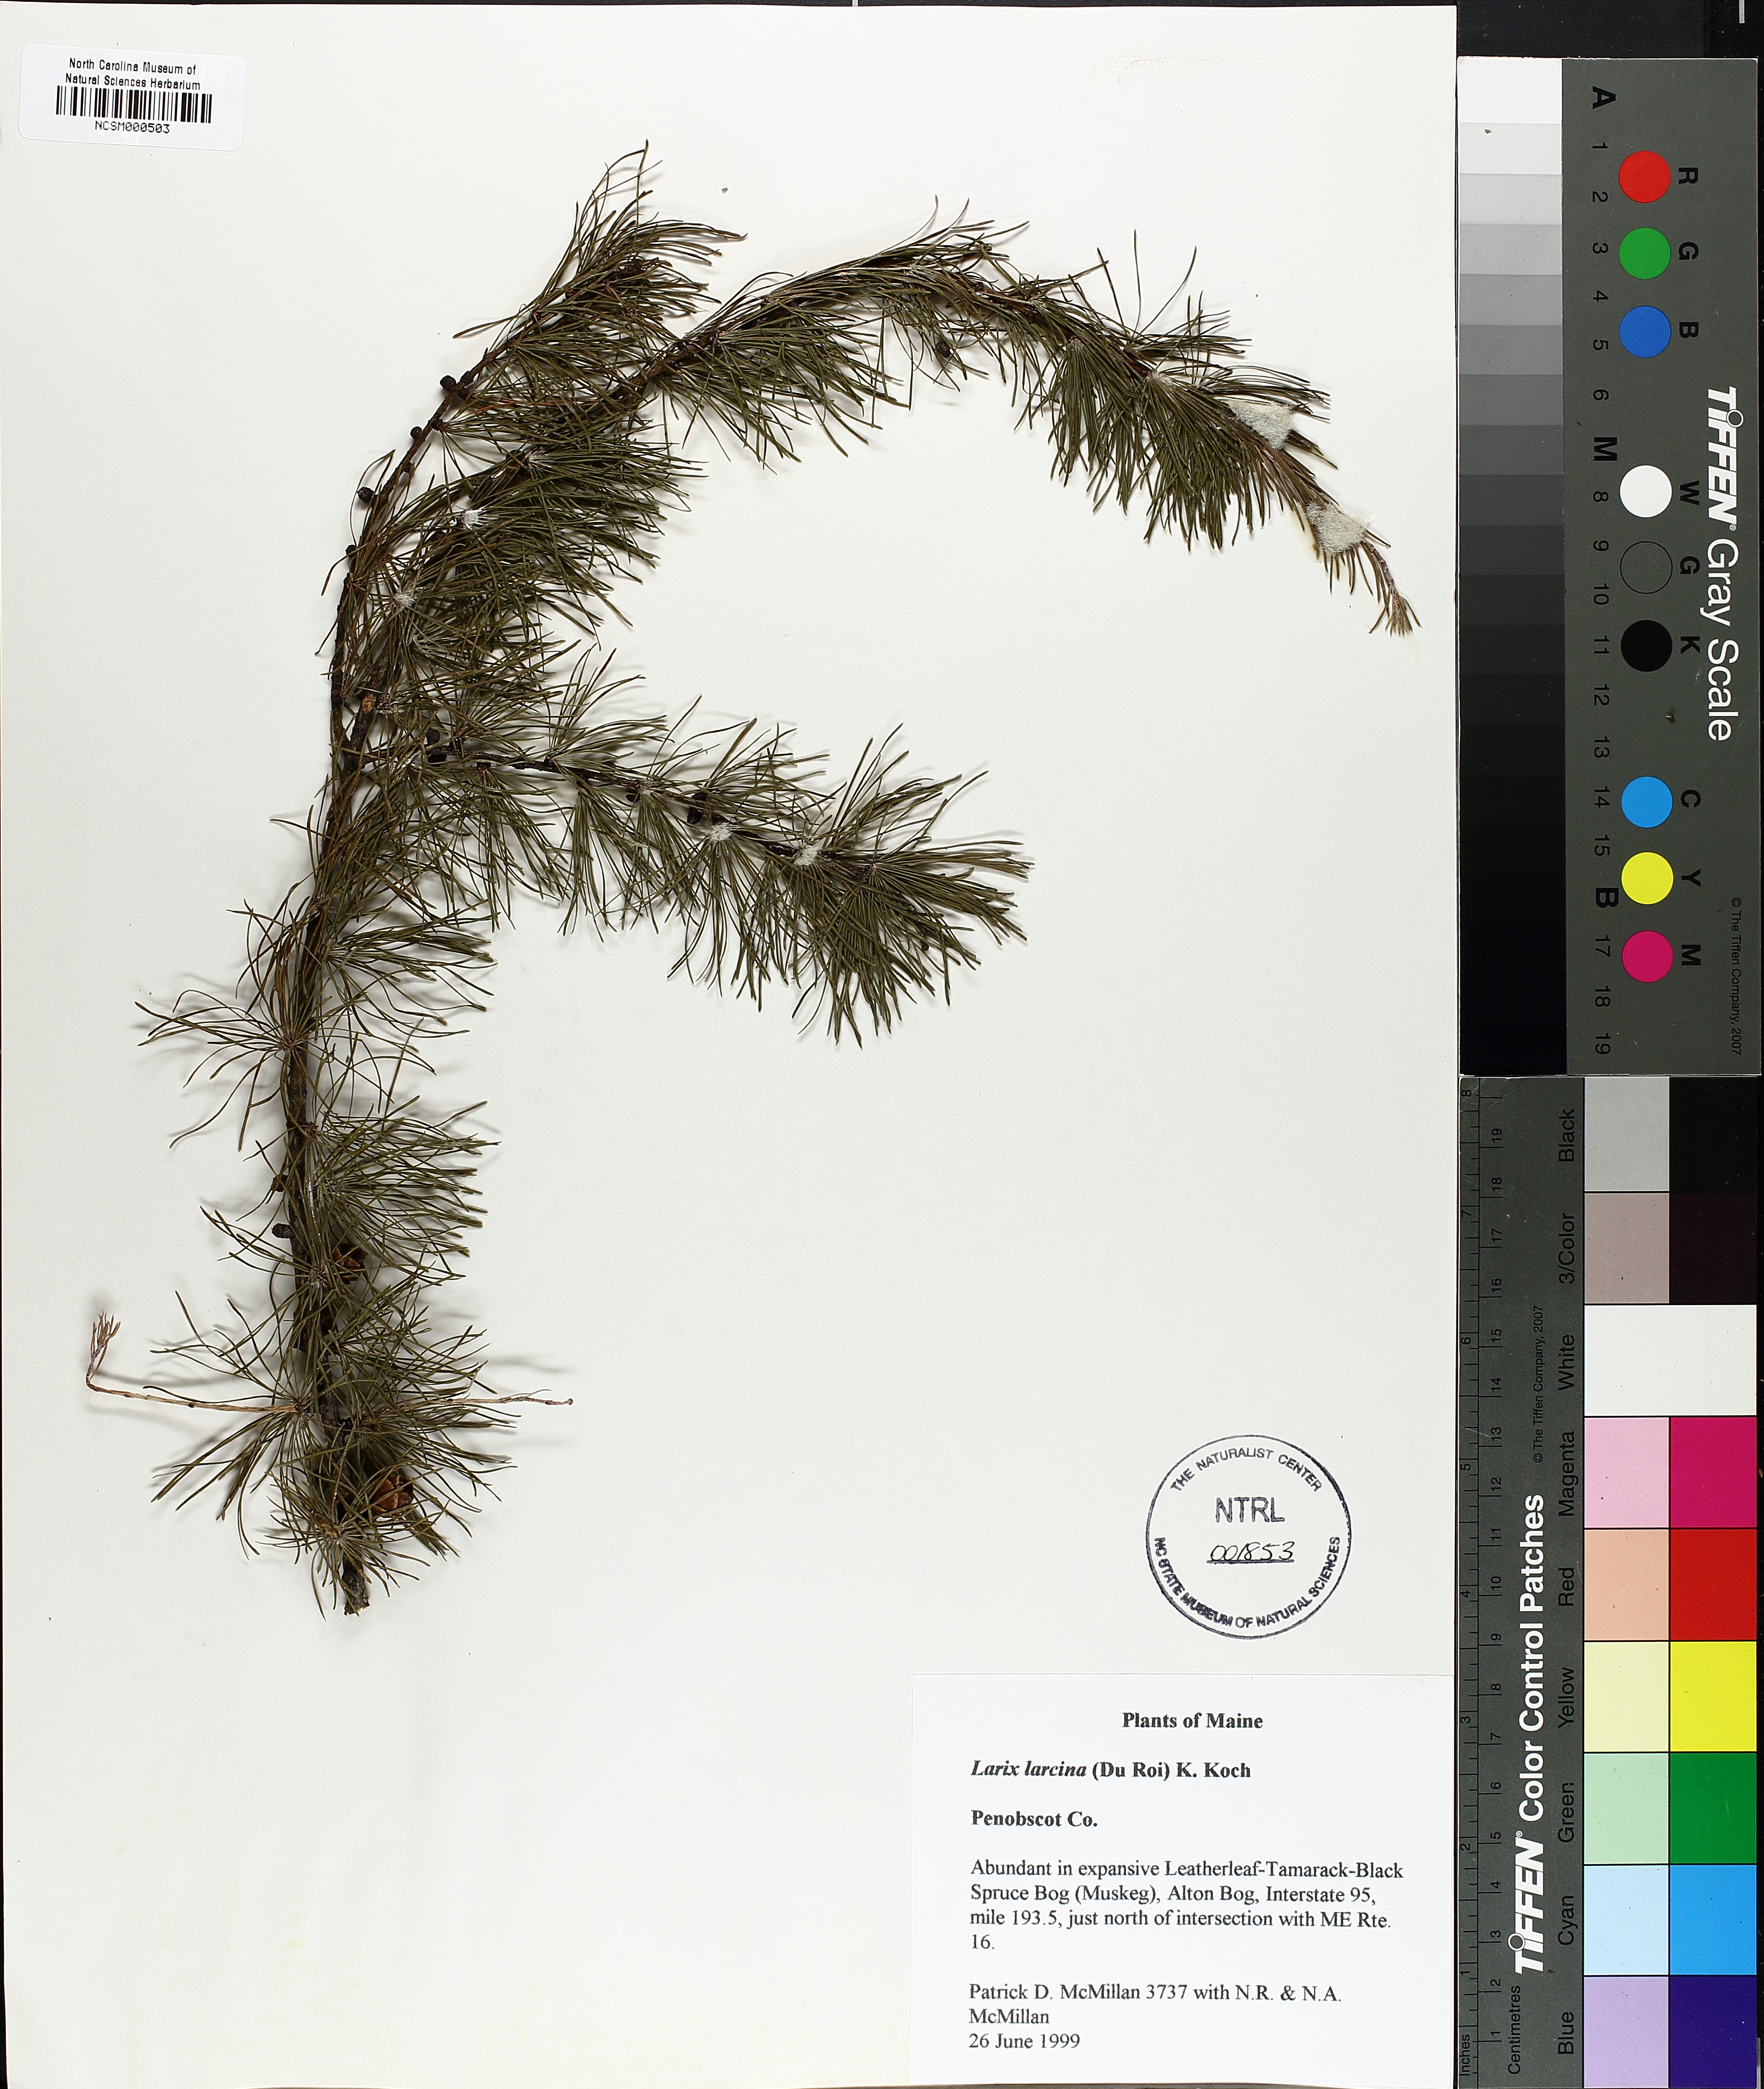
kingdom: Plantae
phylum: Tracheophyta
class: Pinopsida
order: Pinales
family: Pinaceae
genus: Larix
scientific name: Larix laricina
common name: American larch
